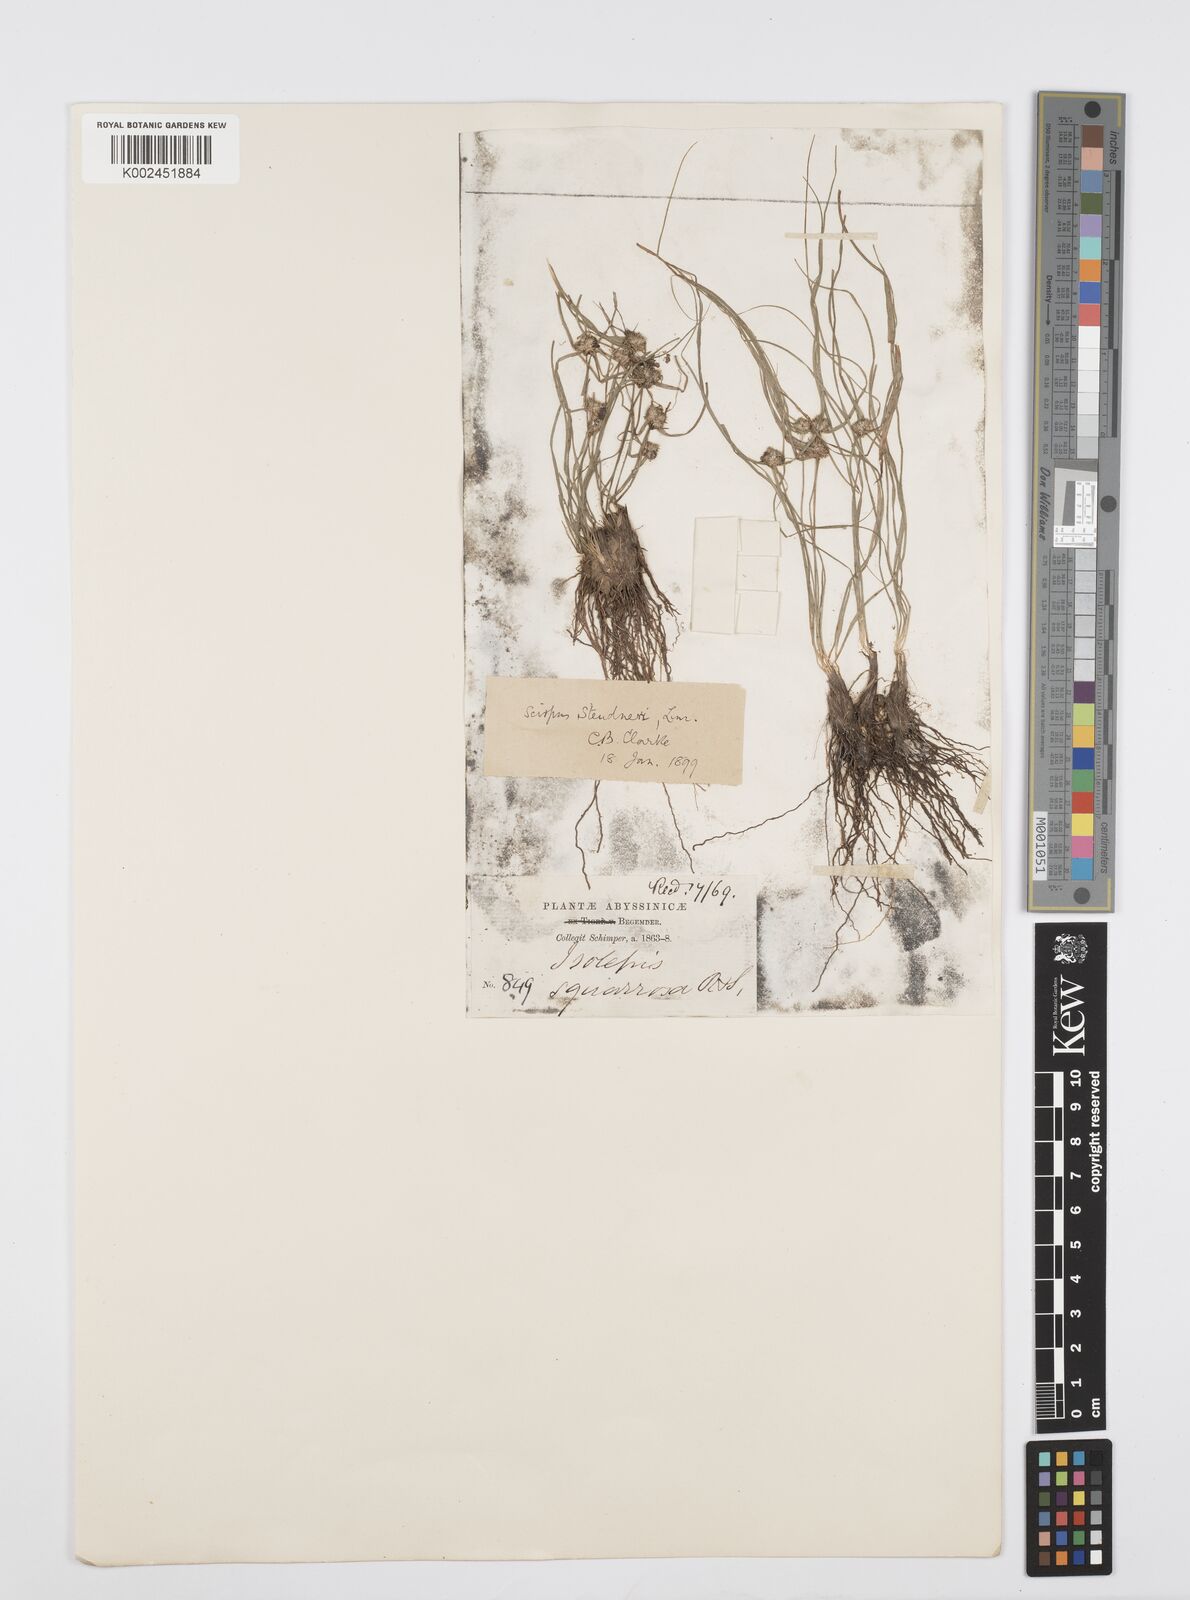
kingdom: Plantae
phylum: Tracheophyta
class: Liliopsida
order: Poales
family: Cyperaceae
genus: Cyperus
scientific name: Cyperus bulbosus
